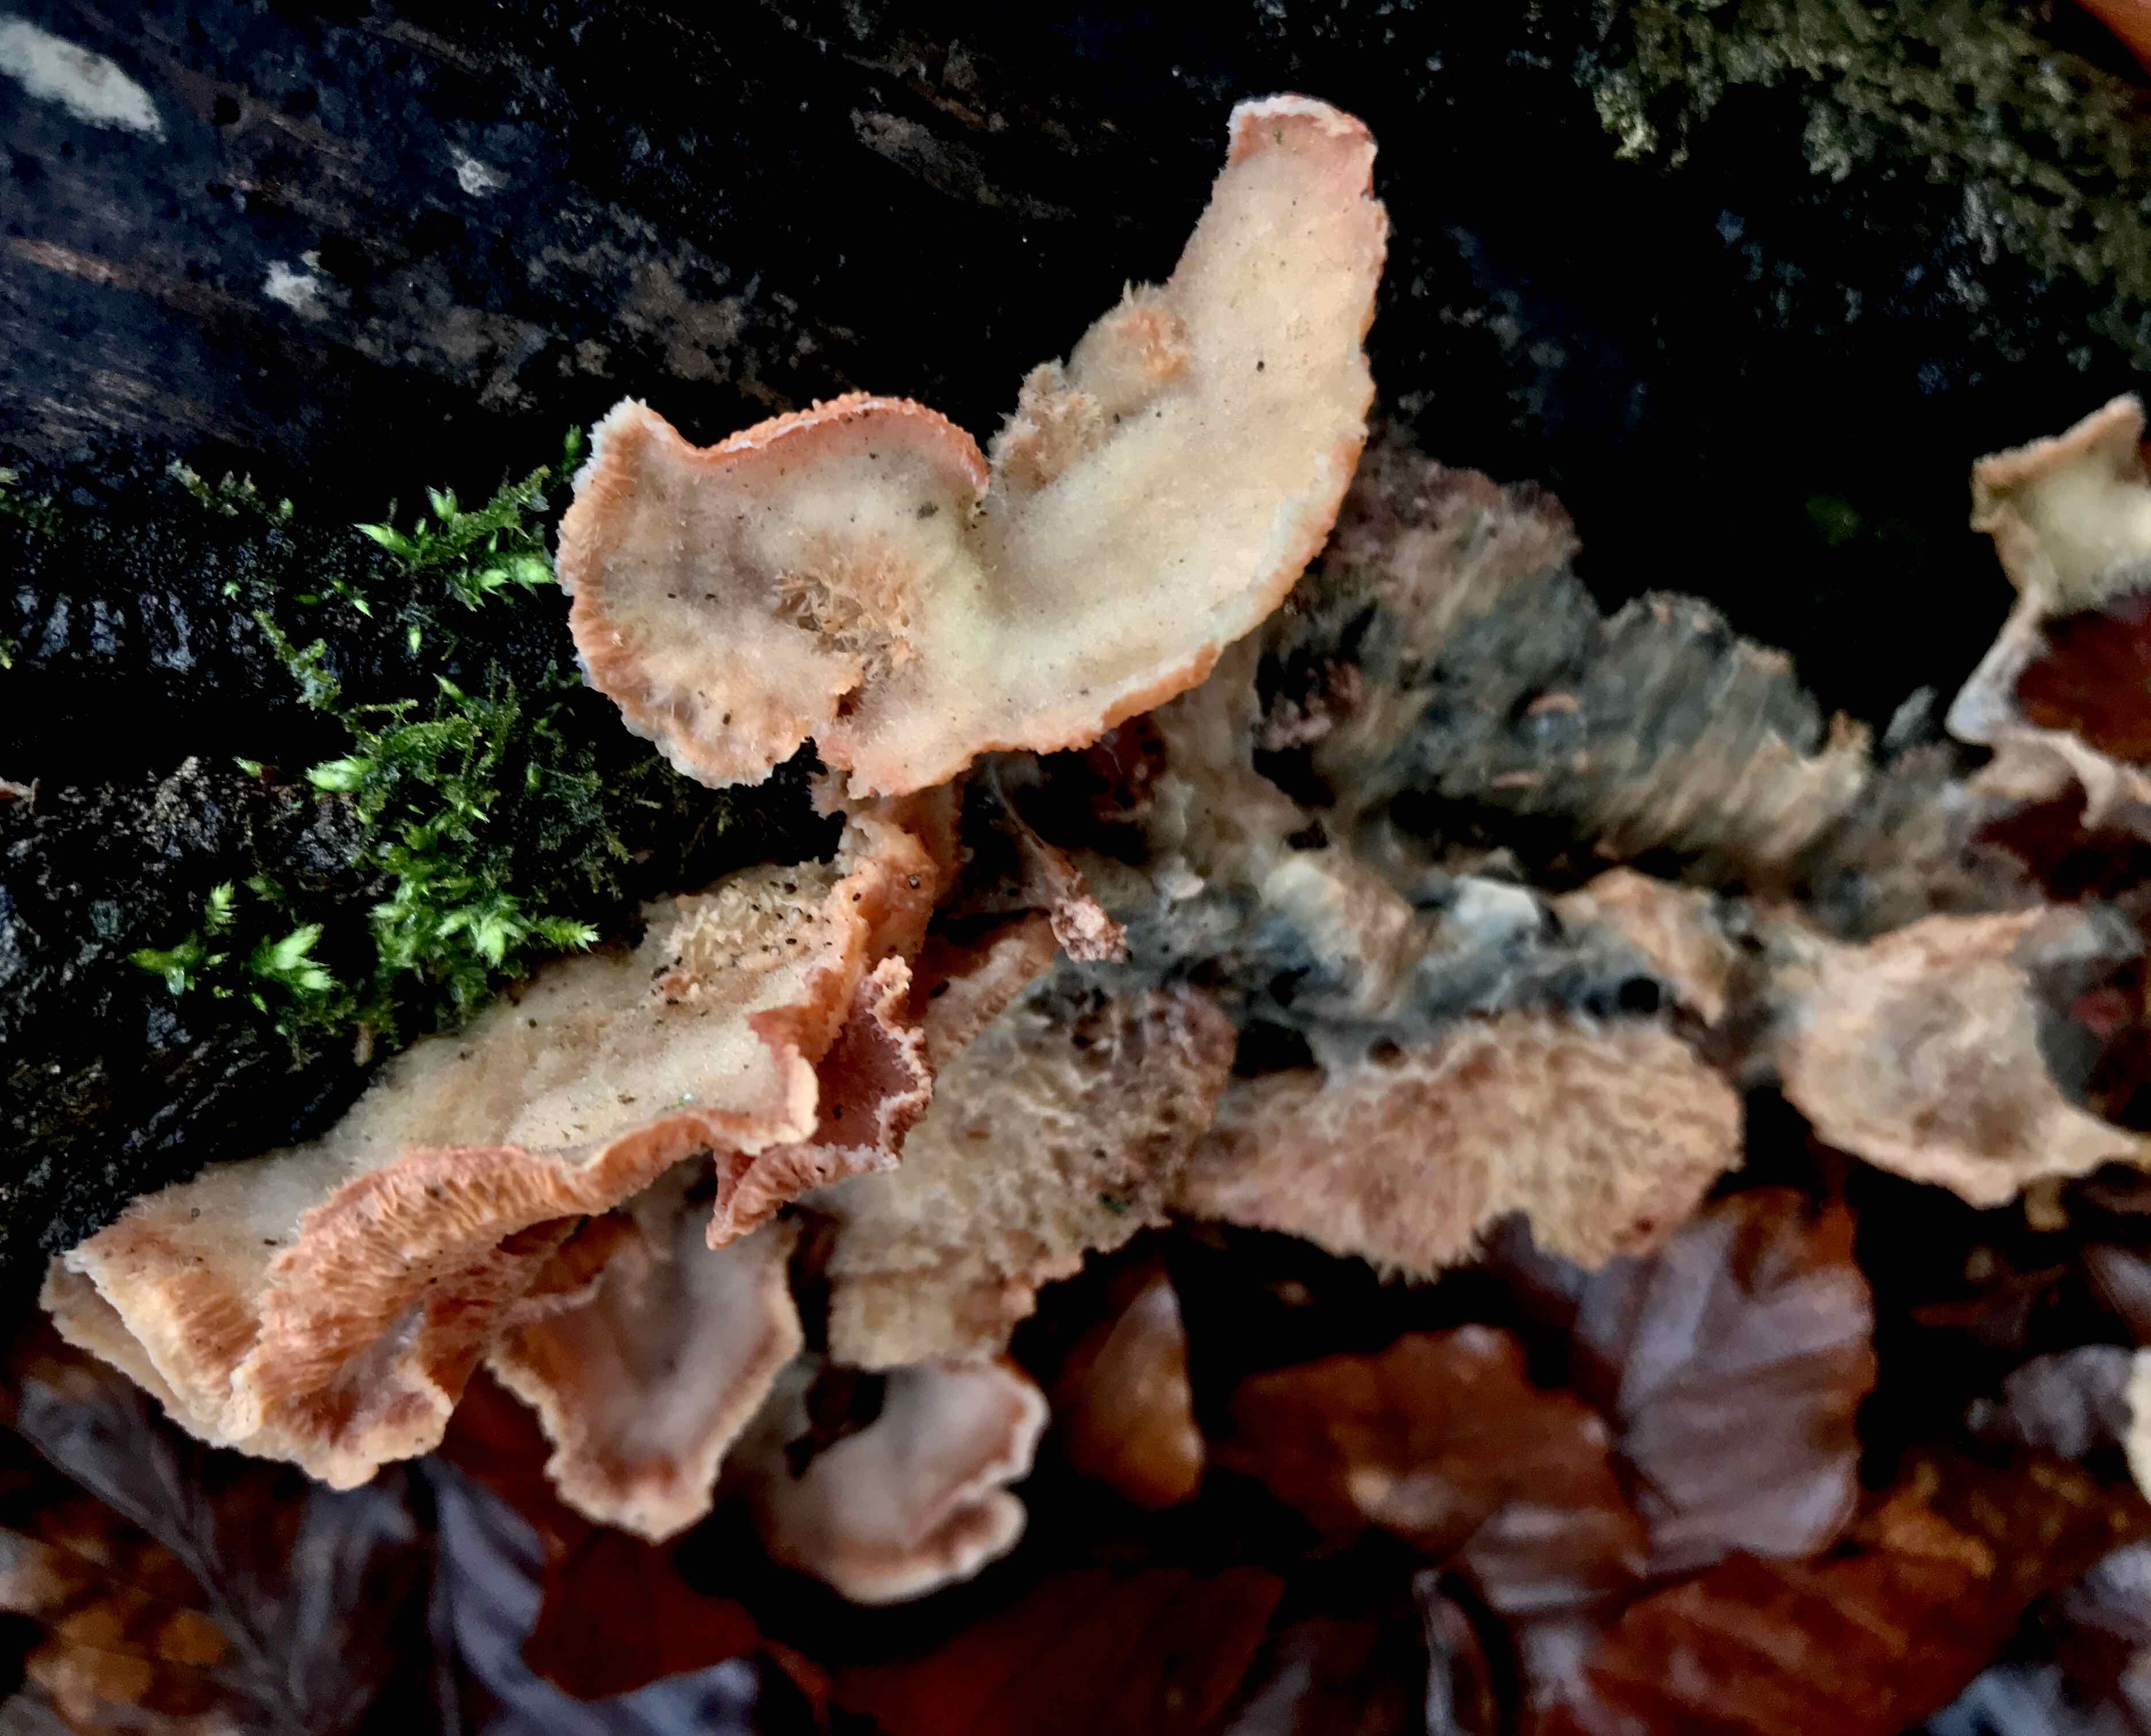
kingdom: Fungi
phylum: Basidiomycota
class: Agaricomycetes
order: Polyporales
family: Meruliaceae
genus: Phlebia
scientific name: Phlebia tremellosa
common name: bævrende åresvamp
